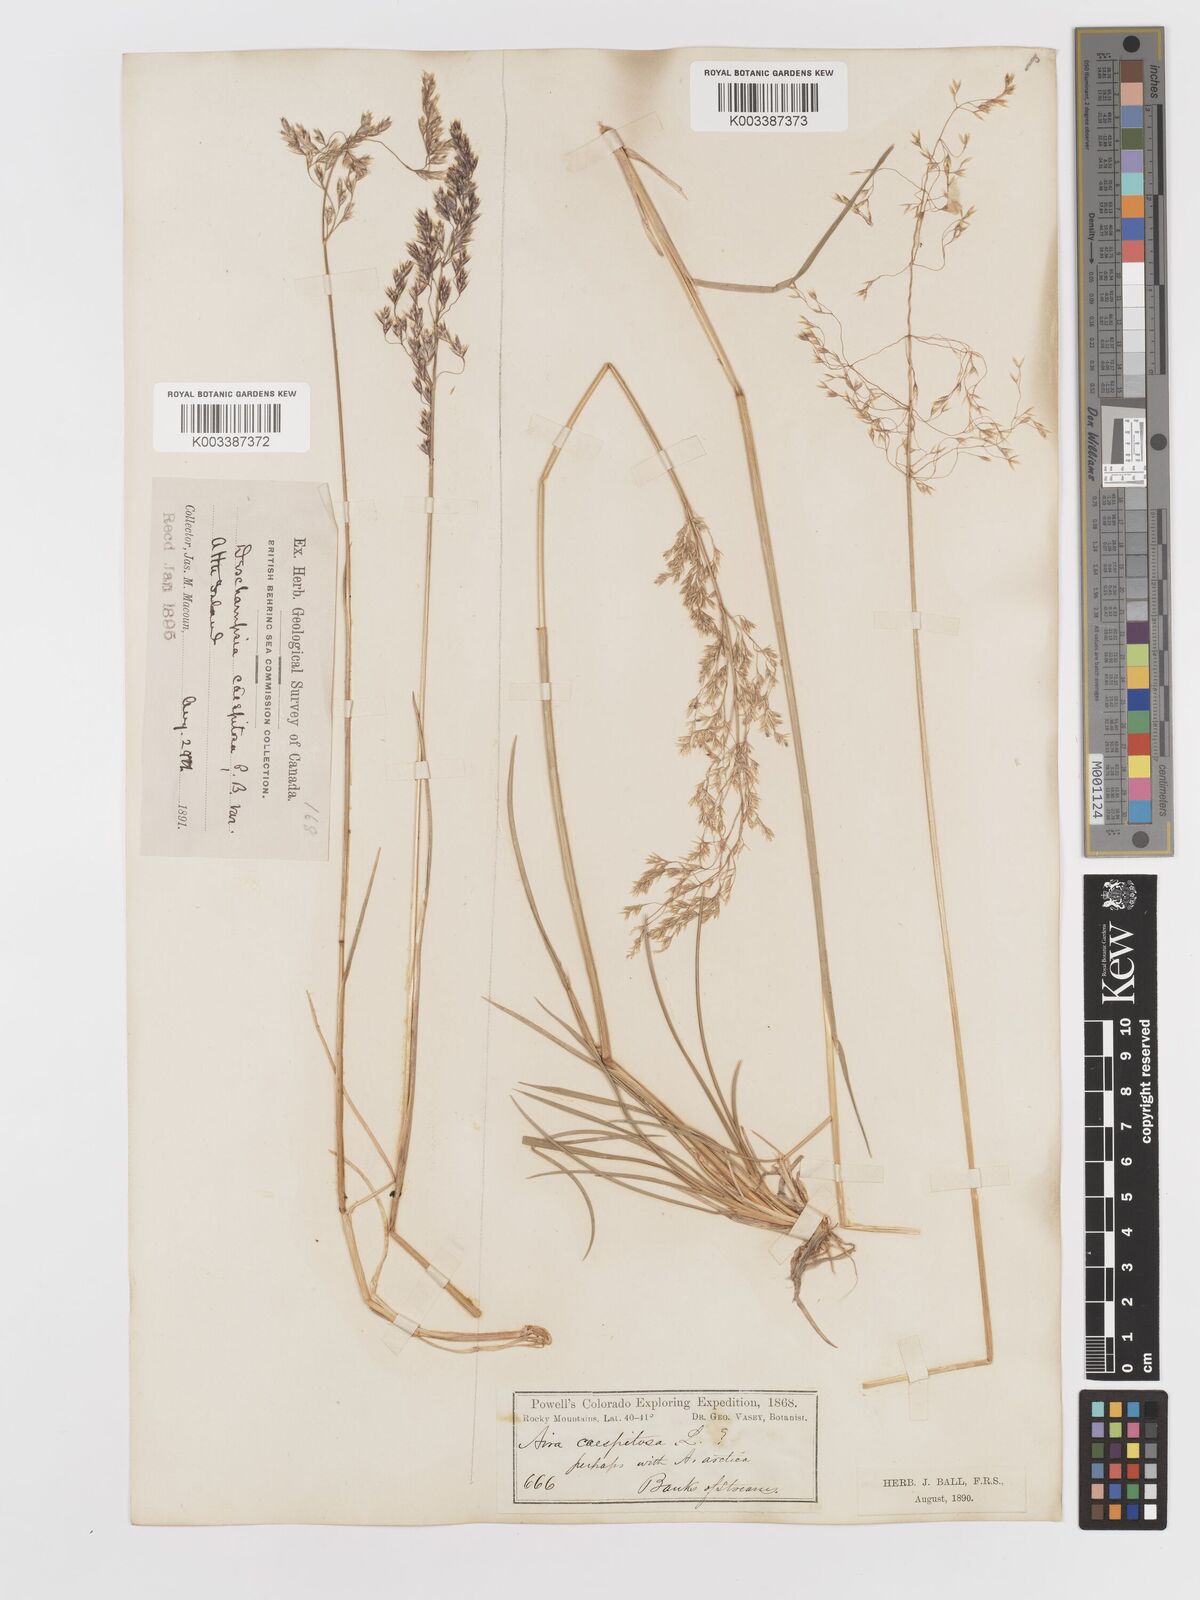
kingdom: Plantae
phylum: Tracheophyta
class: Liliopsida
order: Poales
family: Poaceae
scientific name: Poaceae
